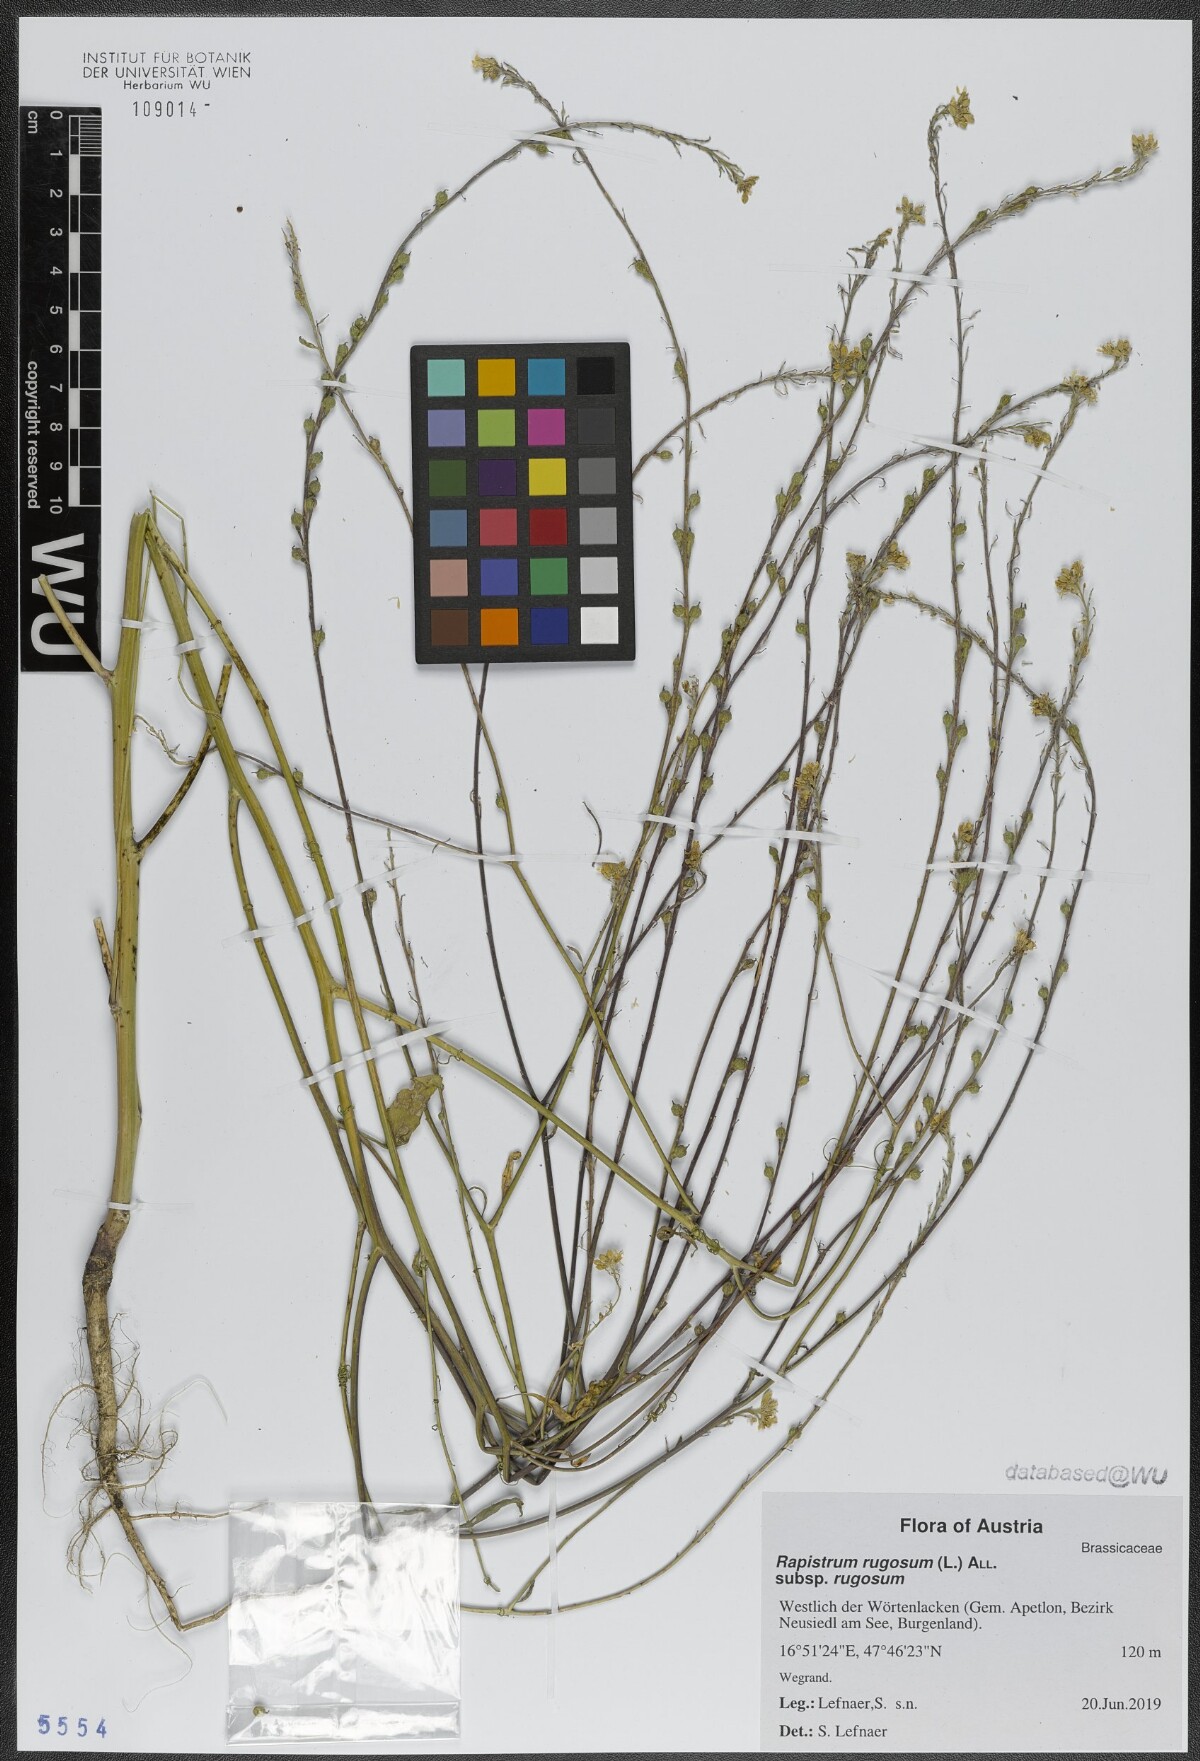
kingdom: Plantae
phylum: Tracheophyta
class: Magnoliopsida
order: Brassicales
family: Brassicaceae
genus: Rapistrum
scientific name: Rapistrum rugosum
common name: Annual bastardcabbage
